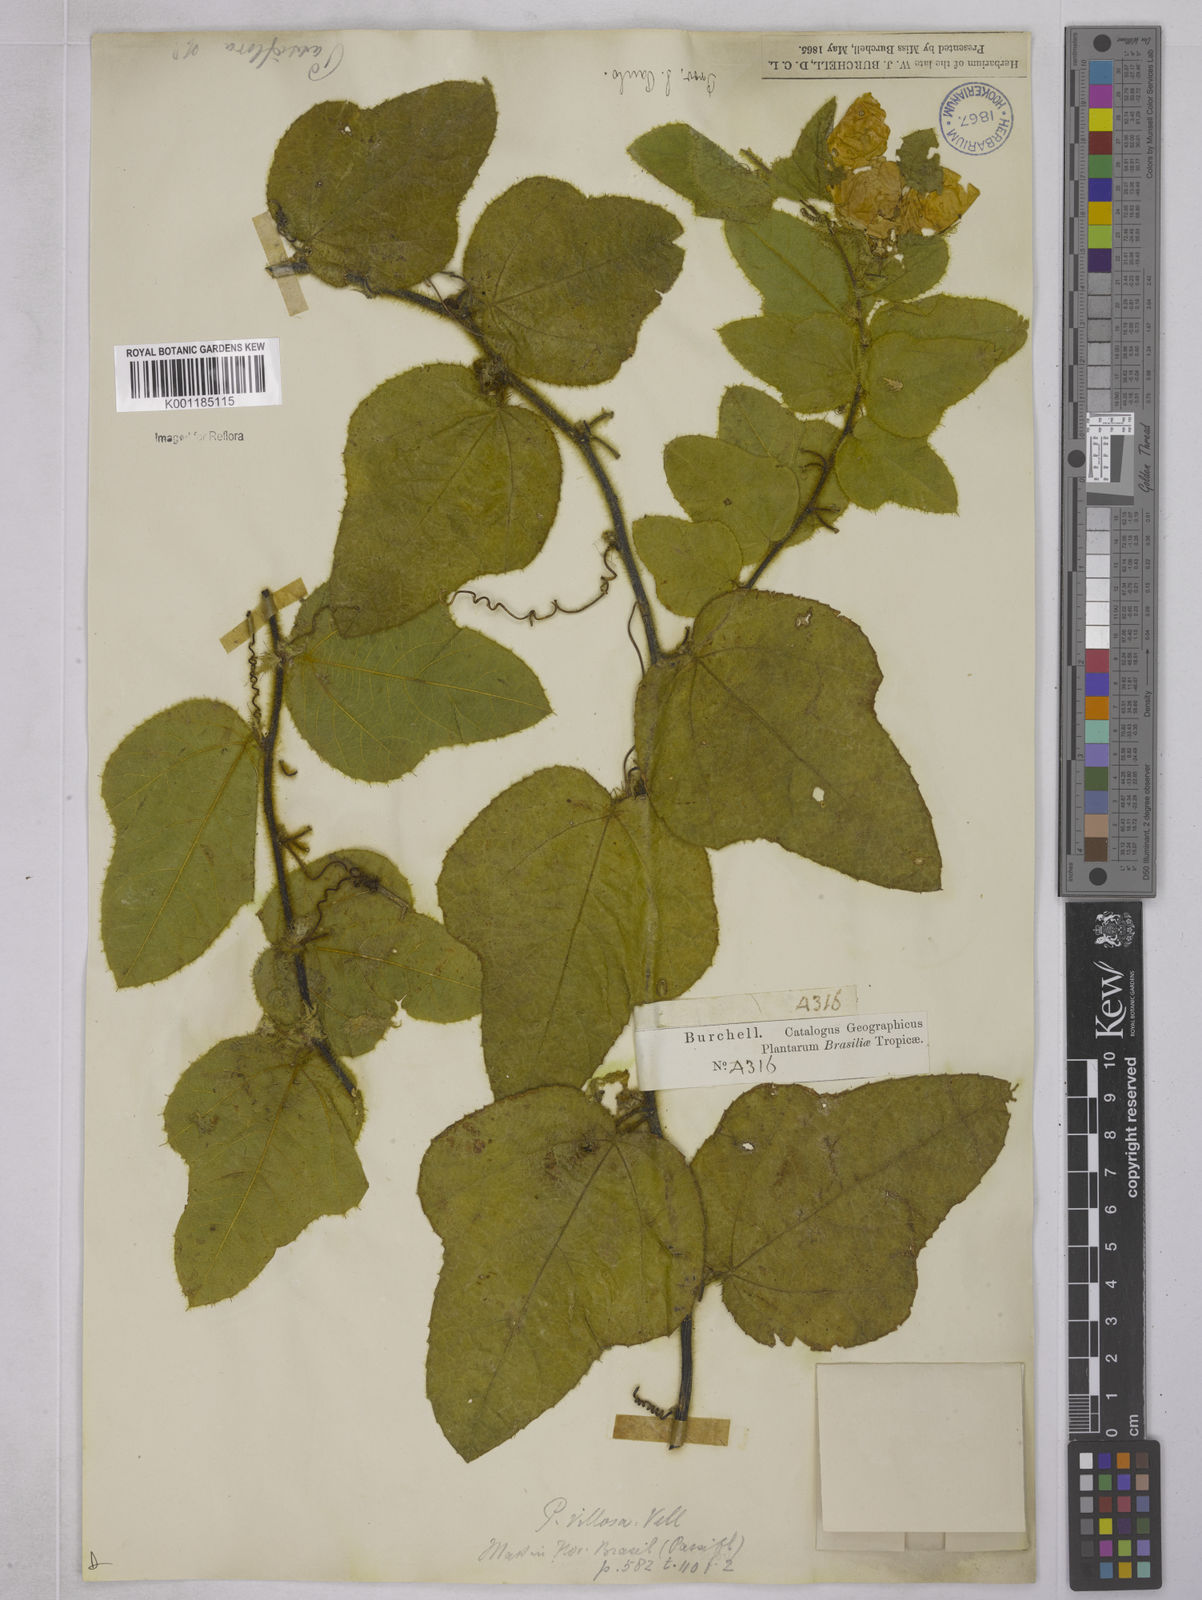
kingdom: Plantae
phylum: Tracheophyta
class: Magnoliopsida
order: Malpighiales
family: Passifloraceae
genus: Passiflora
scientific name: Passiflora villosa
